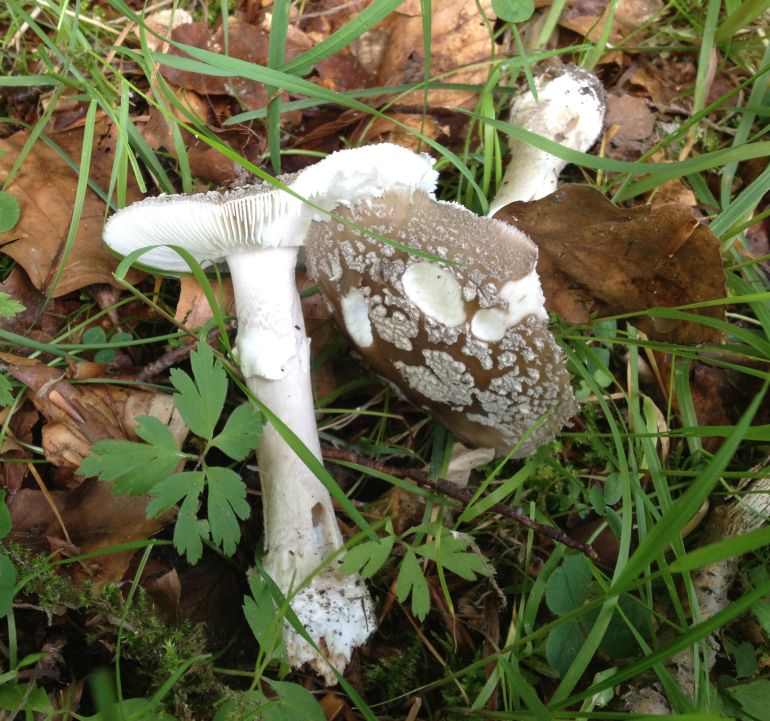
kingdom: Fungi
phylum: Basidiomycota
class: Agaricomycetes
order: Agaricales
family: Amanitaceae
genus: Amanita
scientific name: Amanita
